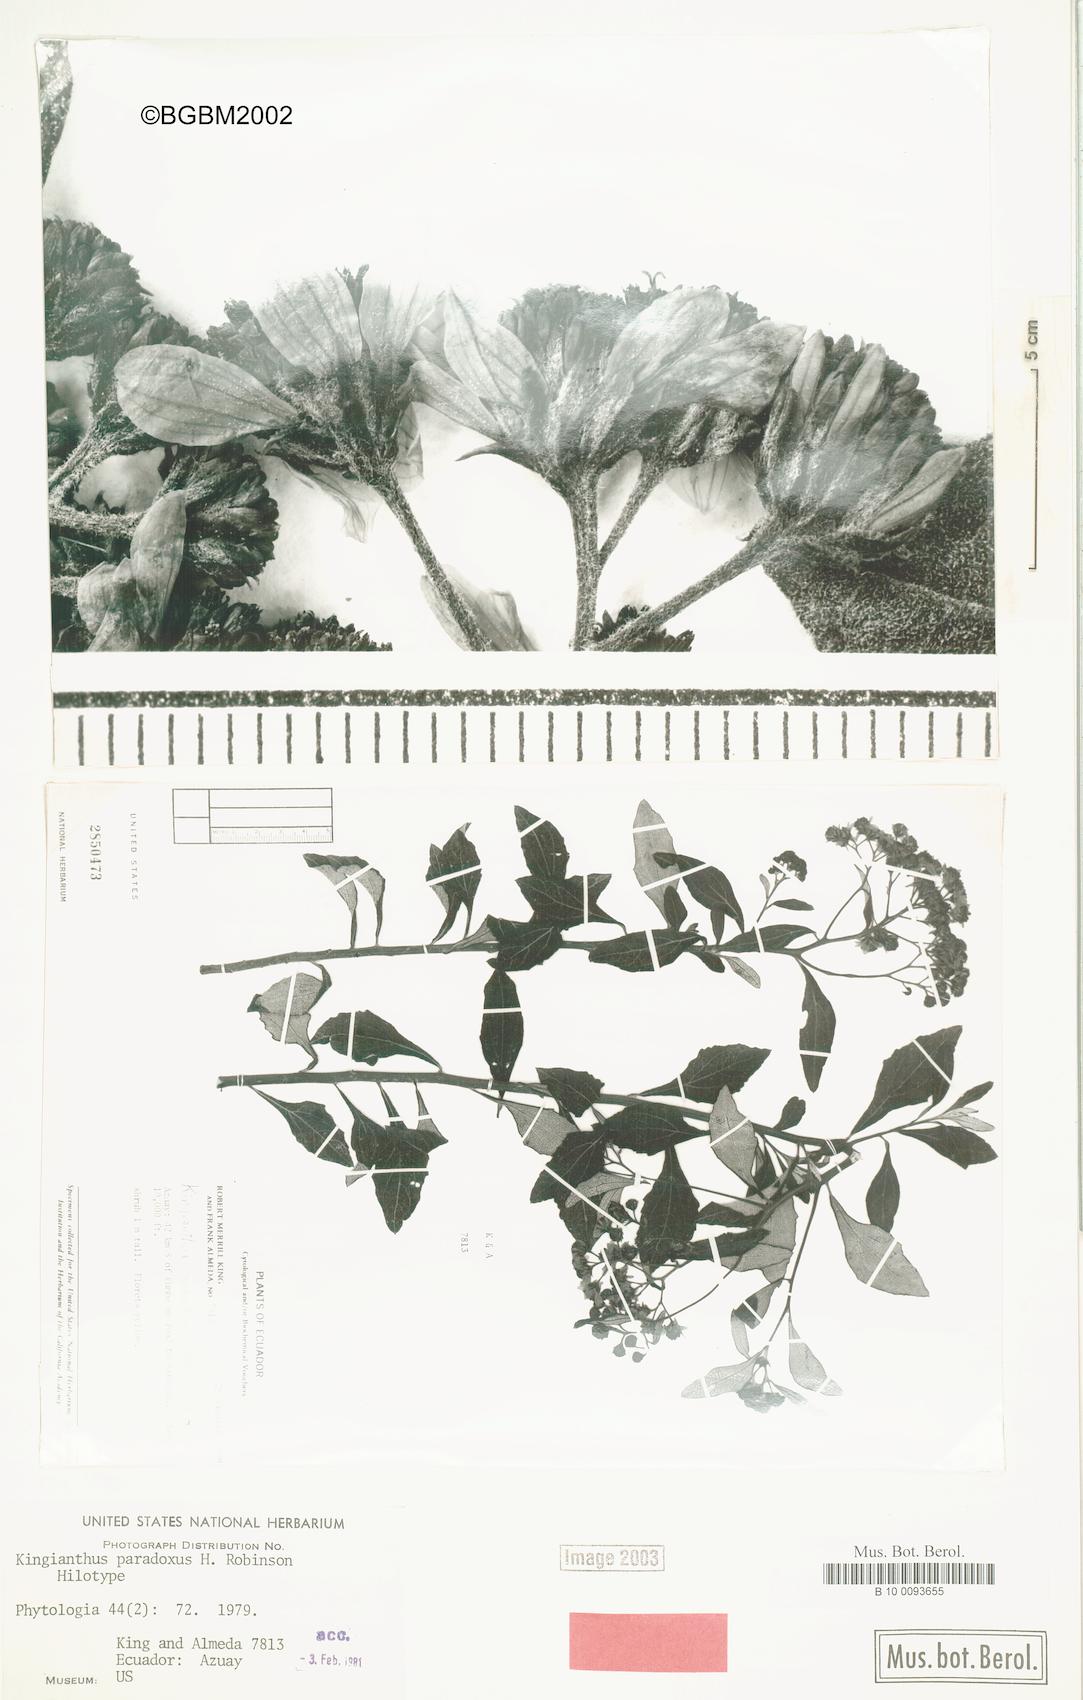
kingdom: Plantae
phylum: Tracheophyta
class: Magnoliopsida
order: Asterales
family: Asteraceae
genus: Kingianthus
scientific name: Kingianthus paradoxus
